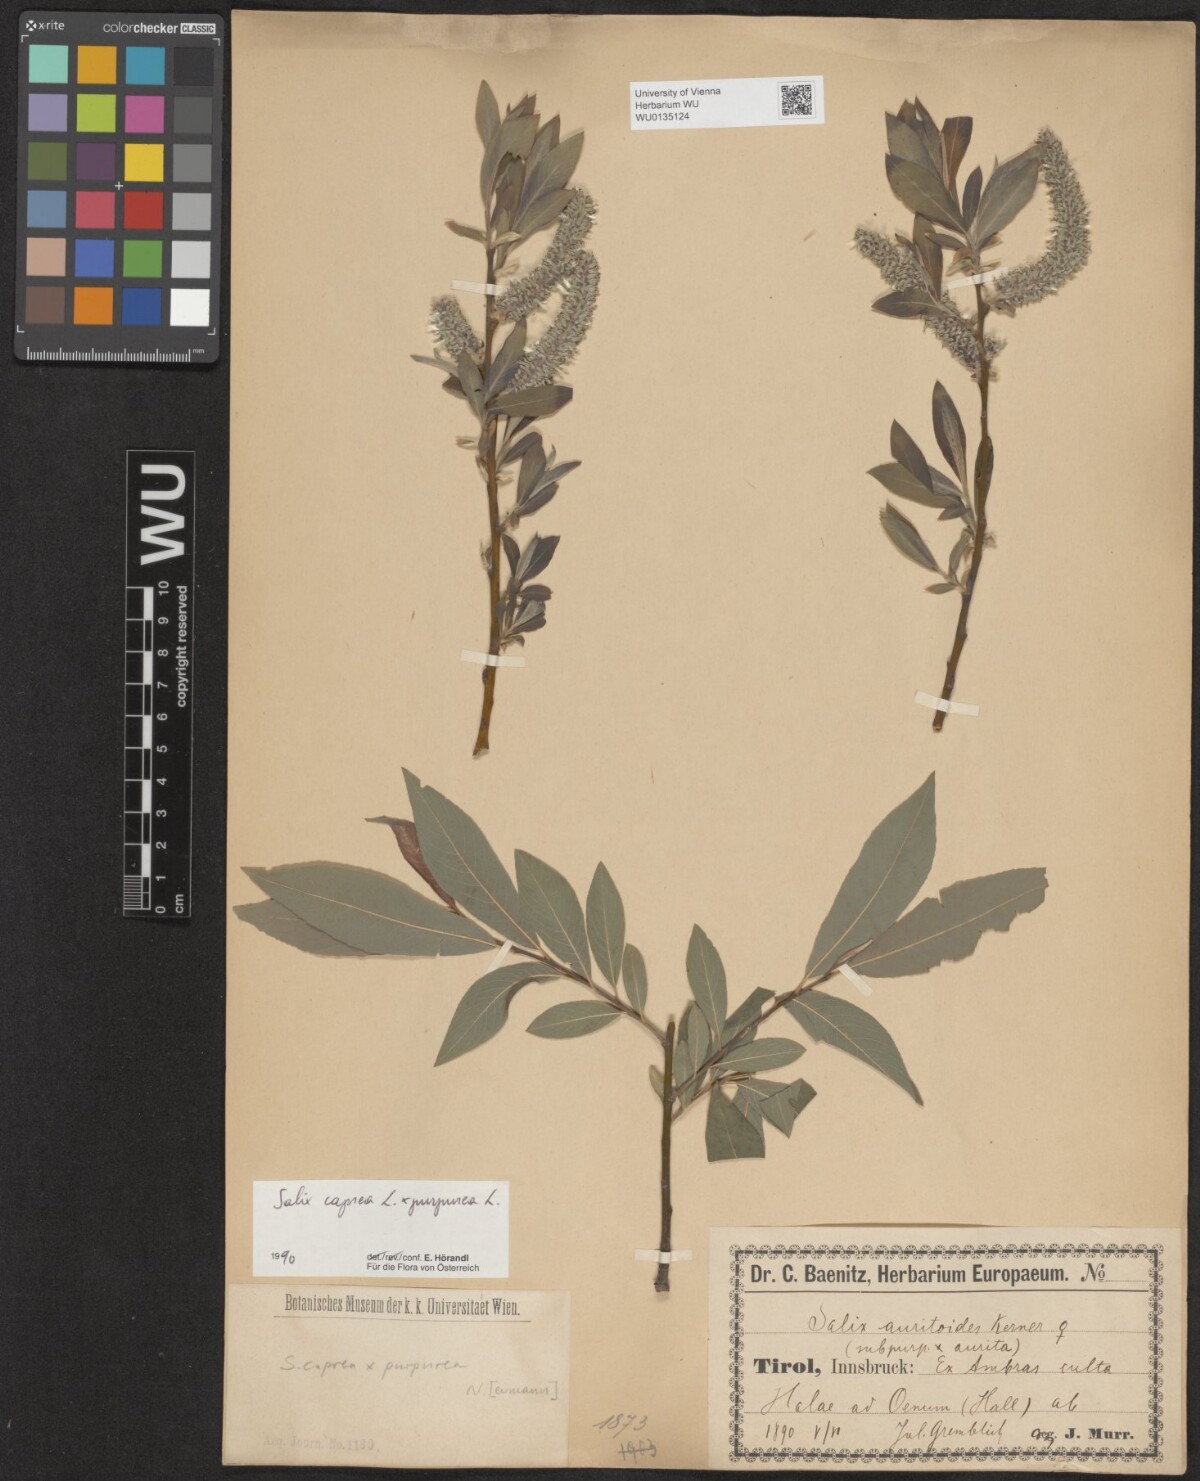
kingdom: Plantae
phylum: Tracheophyta
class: Magnoliopsida
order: Malpighiales
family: Salicaceae
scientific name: Salicaceae
